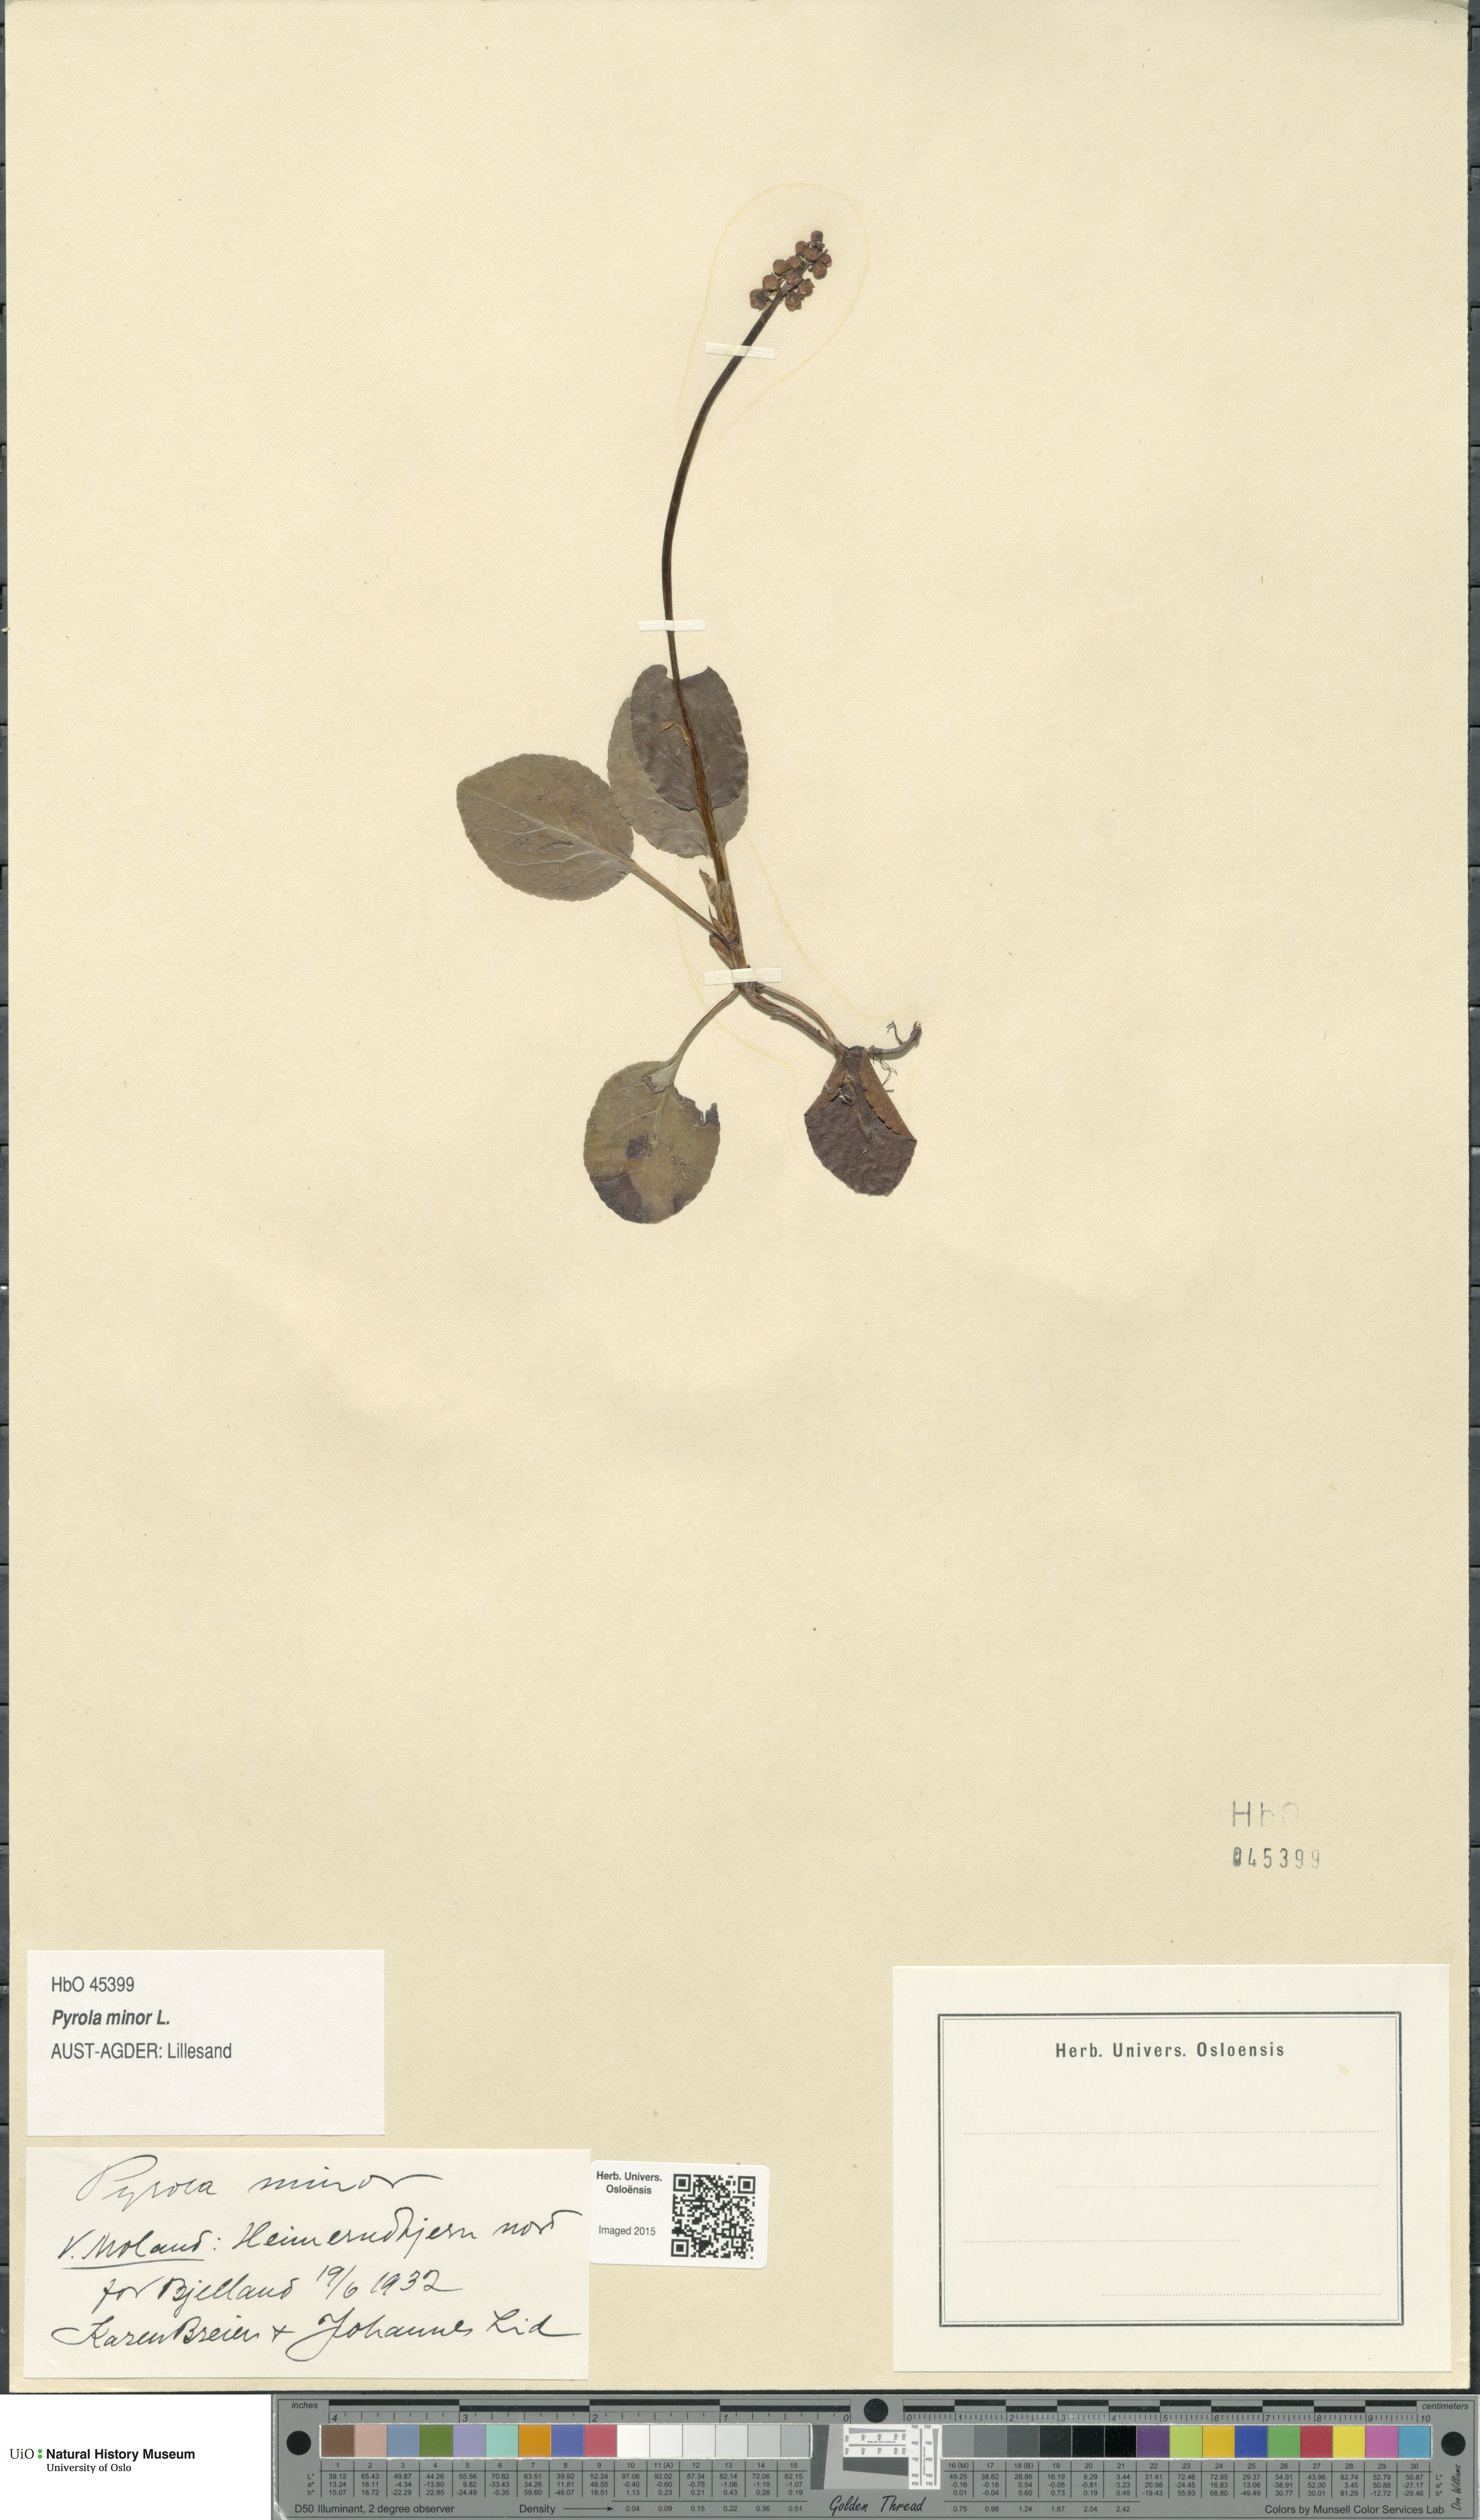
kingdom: Plantae
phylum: Tracheophyta
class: Magnoliopsida
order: Ericales
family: Ericaceae
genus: Pyrola
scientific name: Pyrola minor
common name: Common wintergreen
